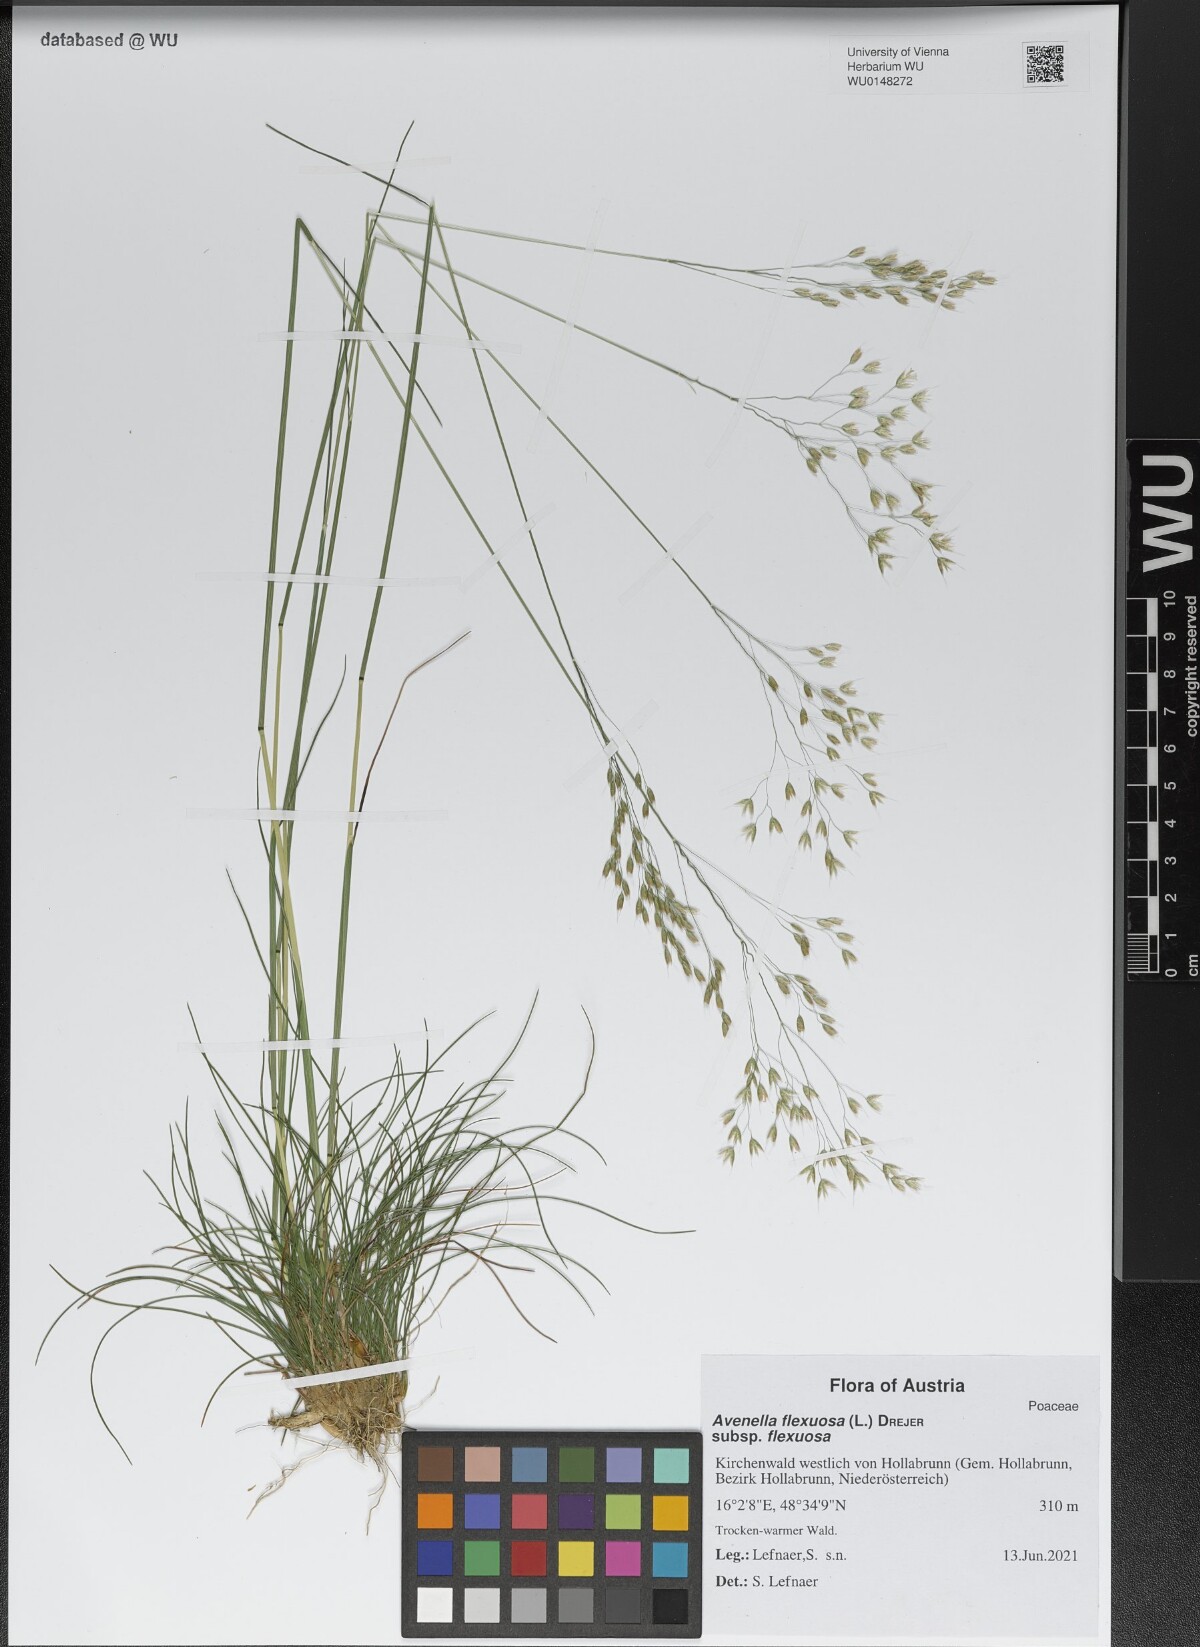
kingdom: Plantae
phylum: Tracheophyta
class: Liliopsida
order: Poales
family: Poaceae
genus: Avenella
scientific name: Avenella flexuosa
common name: Wavy hairgrass
